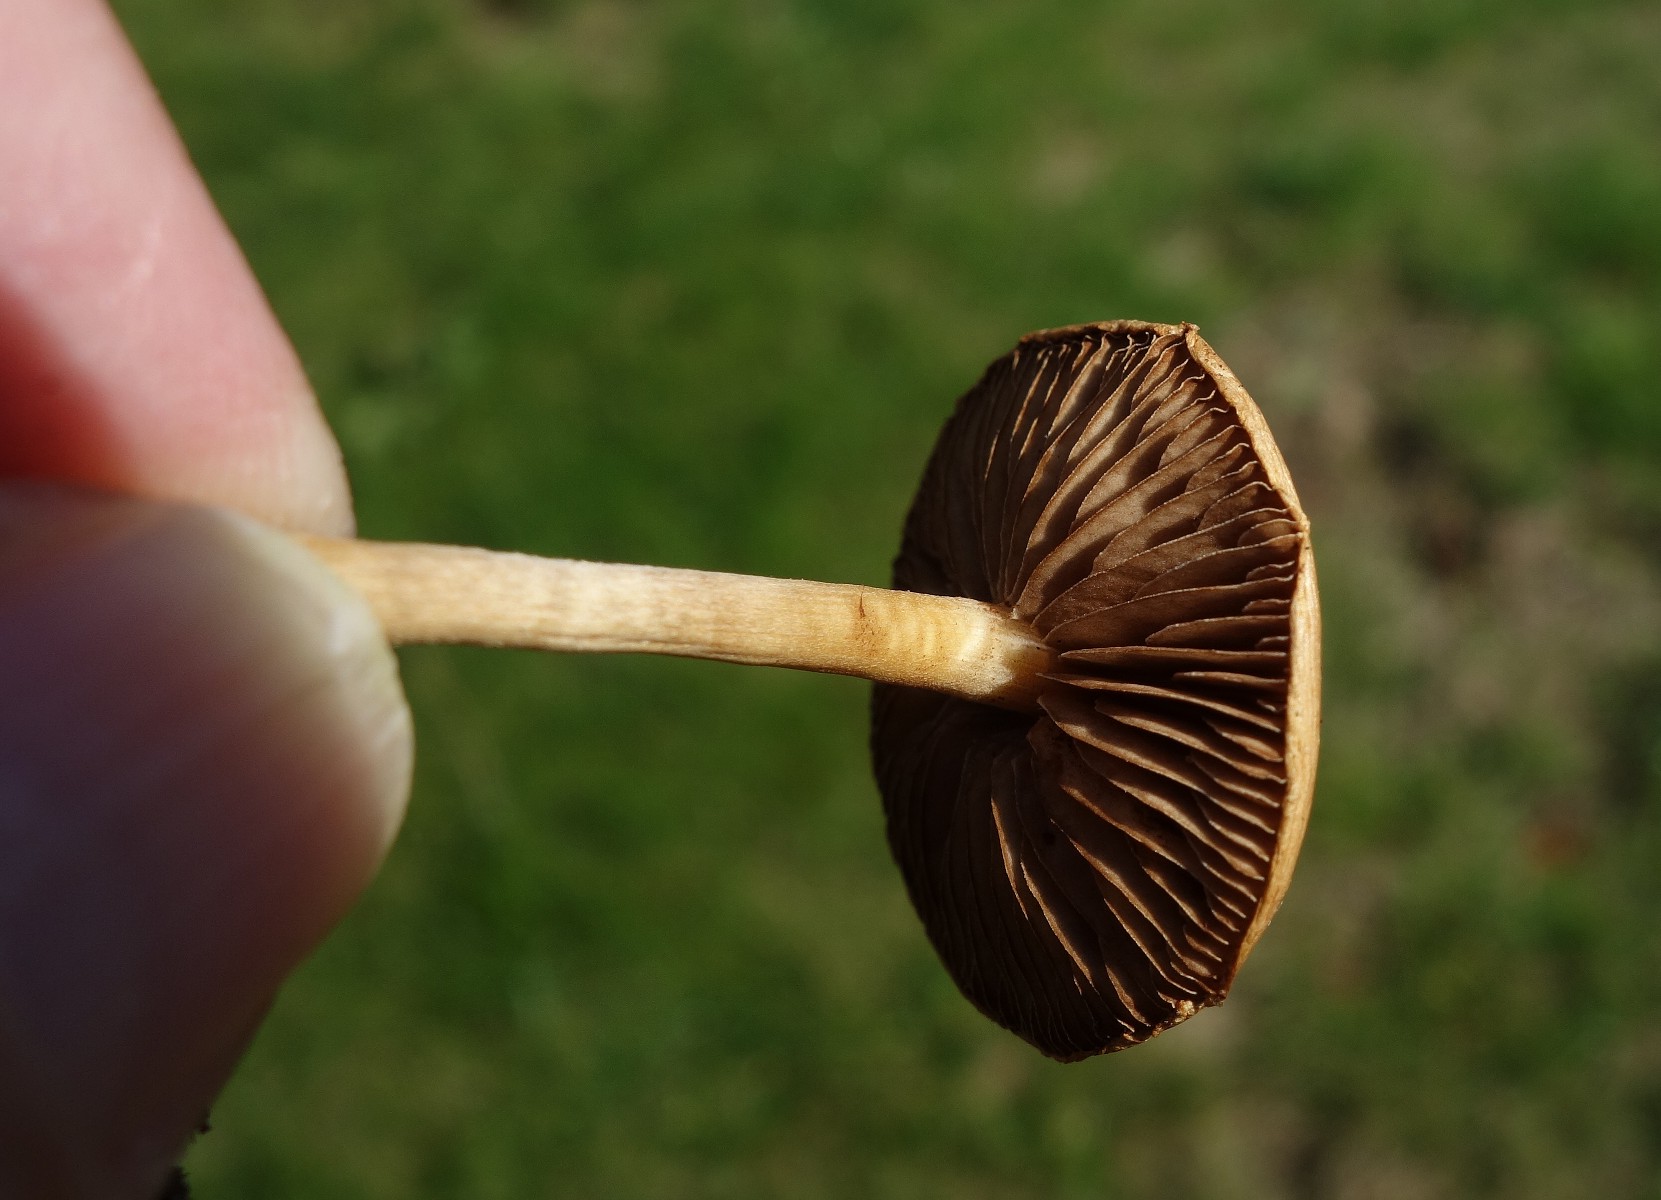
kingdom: Fungi
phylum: Basidiomycota
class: Agaricomycetes
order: Agaricales
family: Strophariaceae
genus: Agrocybe
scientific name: Agrocybe pediades
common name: almindelig agerhat
